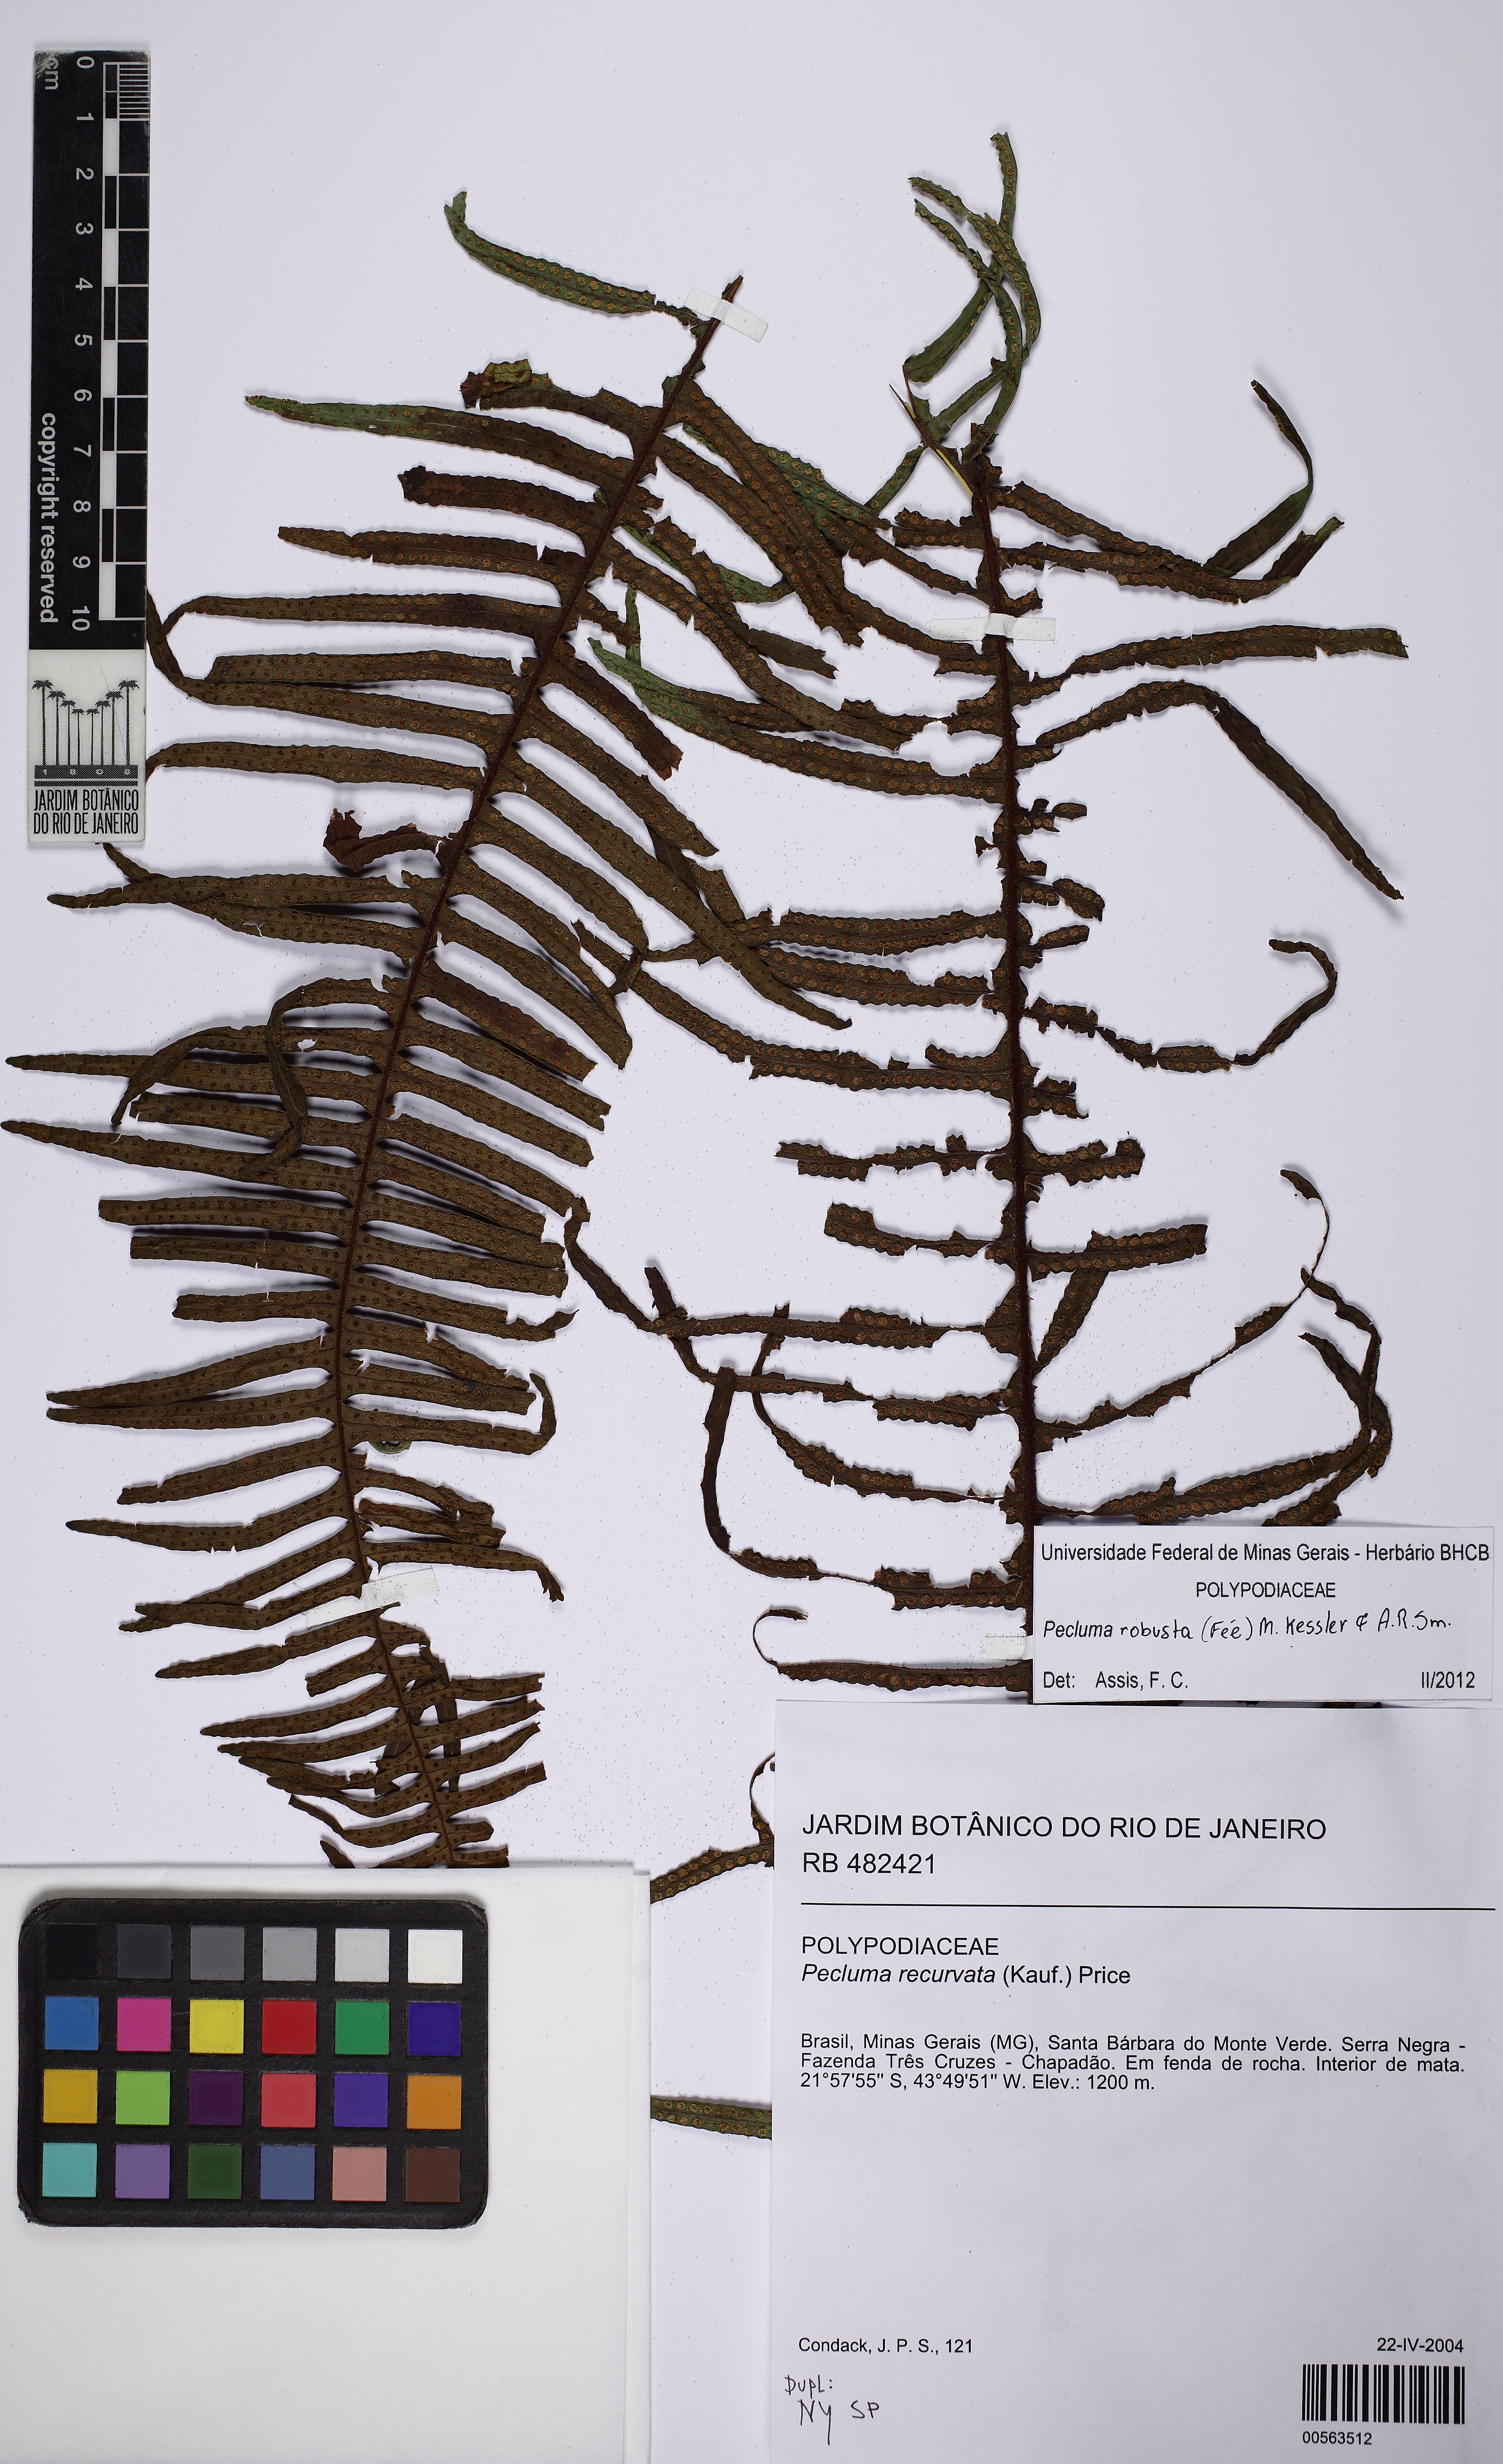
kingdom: Plantae
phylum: Tracheophyta
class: Polypodiopsida
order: Polypodiales
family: Polypodiaceae
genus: Pecluma
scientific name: Pecluma robusta
